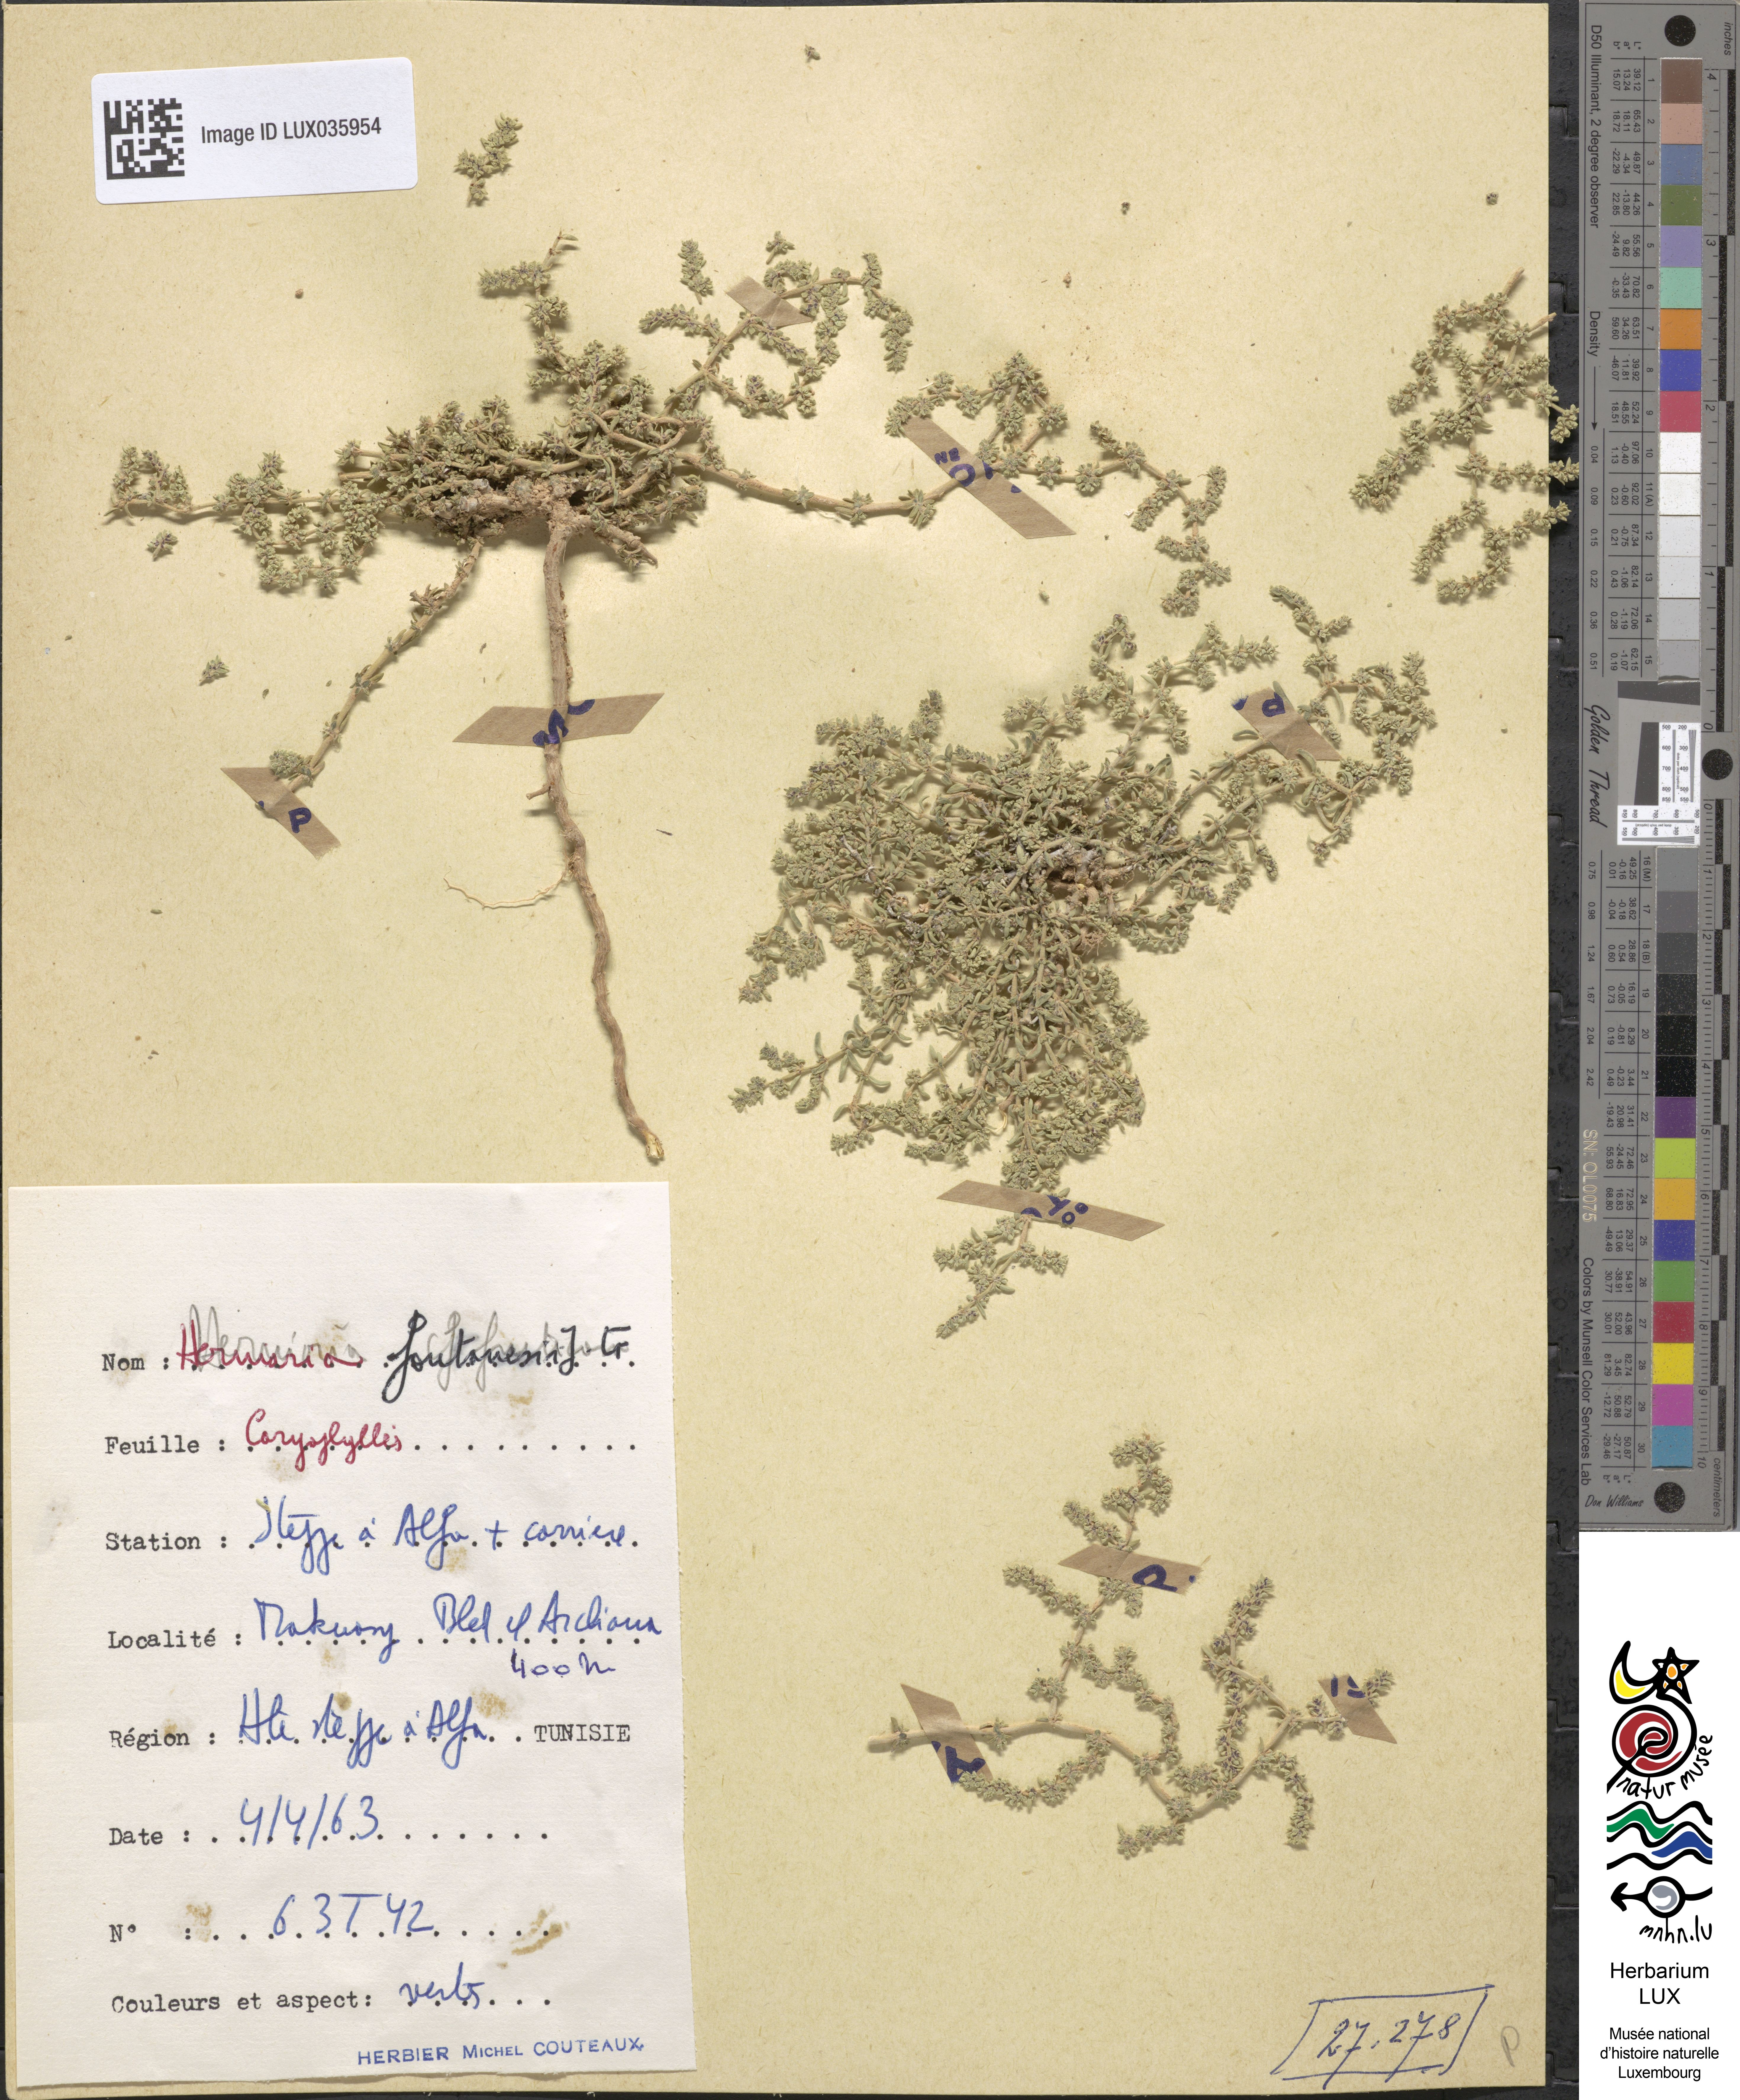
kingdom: Plantae
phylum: Tracheophyta
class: Magnoliopsida
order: Caryophyllales
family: Caryophyllaceae
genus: Herniaria
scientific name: Herniaria fontanesii
